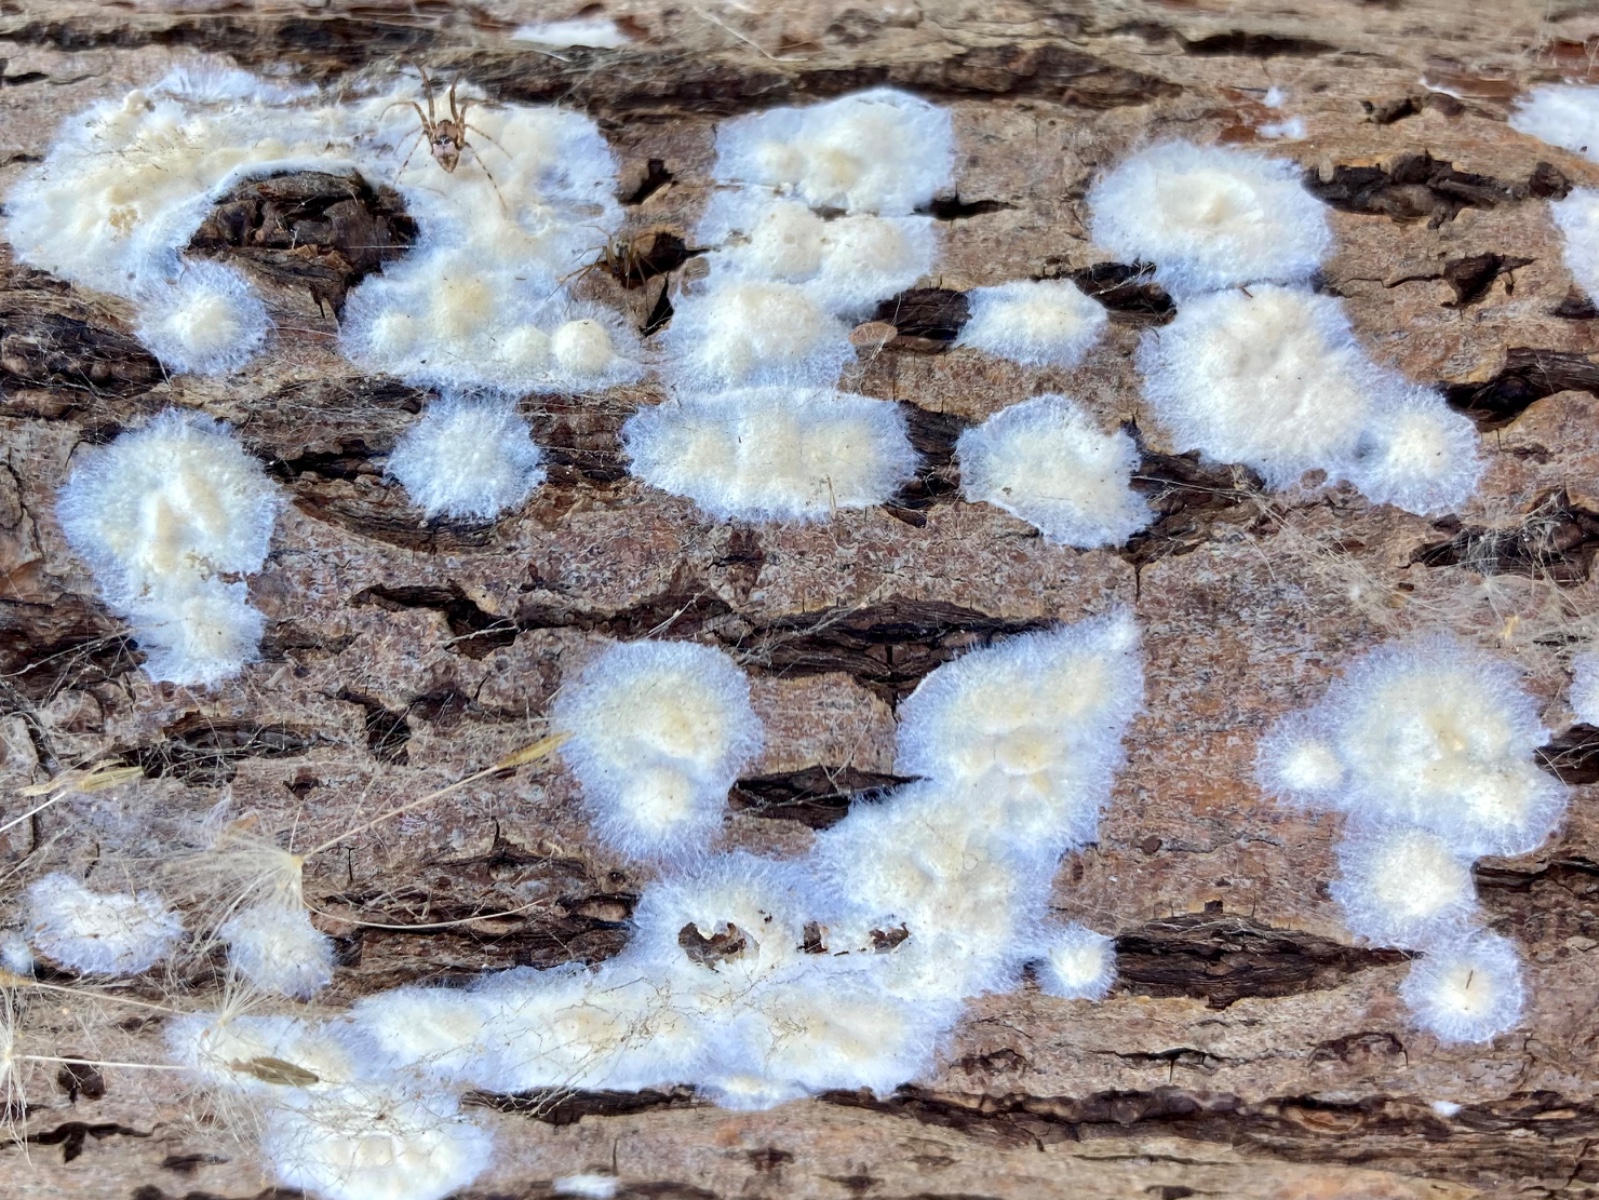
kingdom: Fungi
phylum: Basidiomycota
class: Agaricomycetes
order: Agaricales
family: Physalacriaceae
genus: Cylindrobasidium
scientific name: Cylindrobasidium evolvens
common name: sprækkehinde
